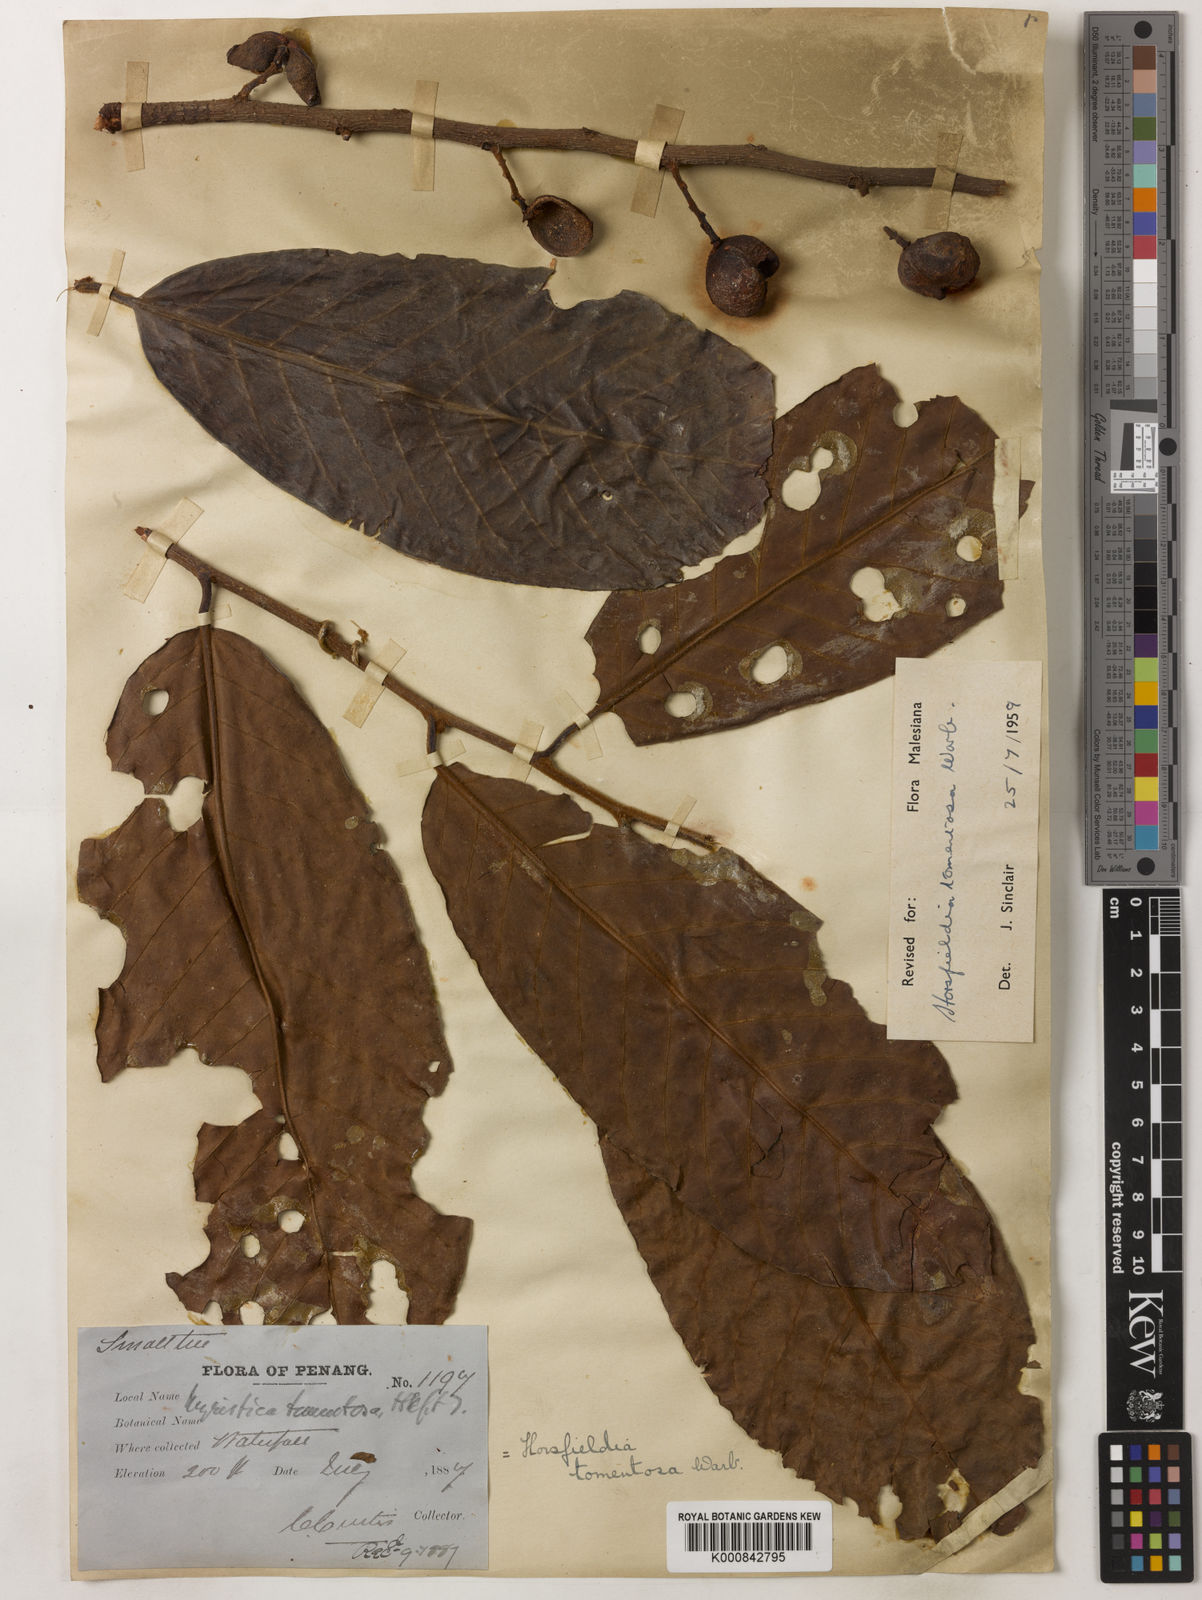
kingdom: Plantae
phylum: Tracheophyta
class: Magnoliopsida
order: Magnoliales
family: Myristicaceae
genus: Horsfieldia
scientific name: Horsfieldia tomentosa
